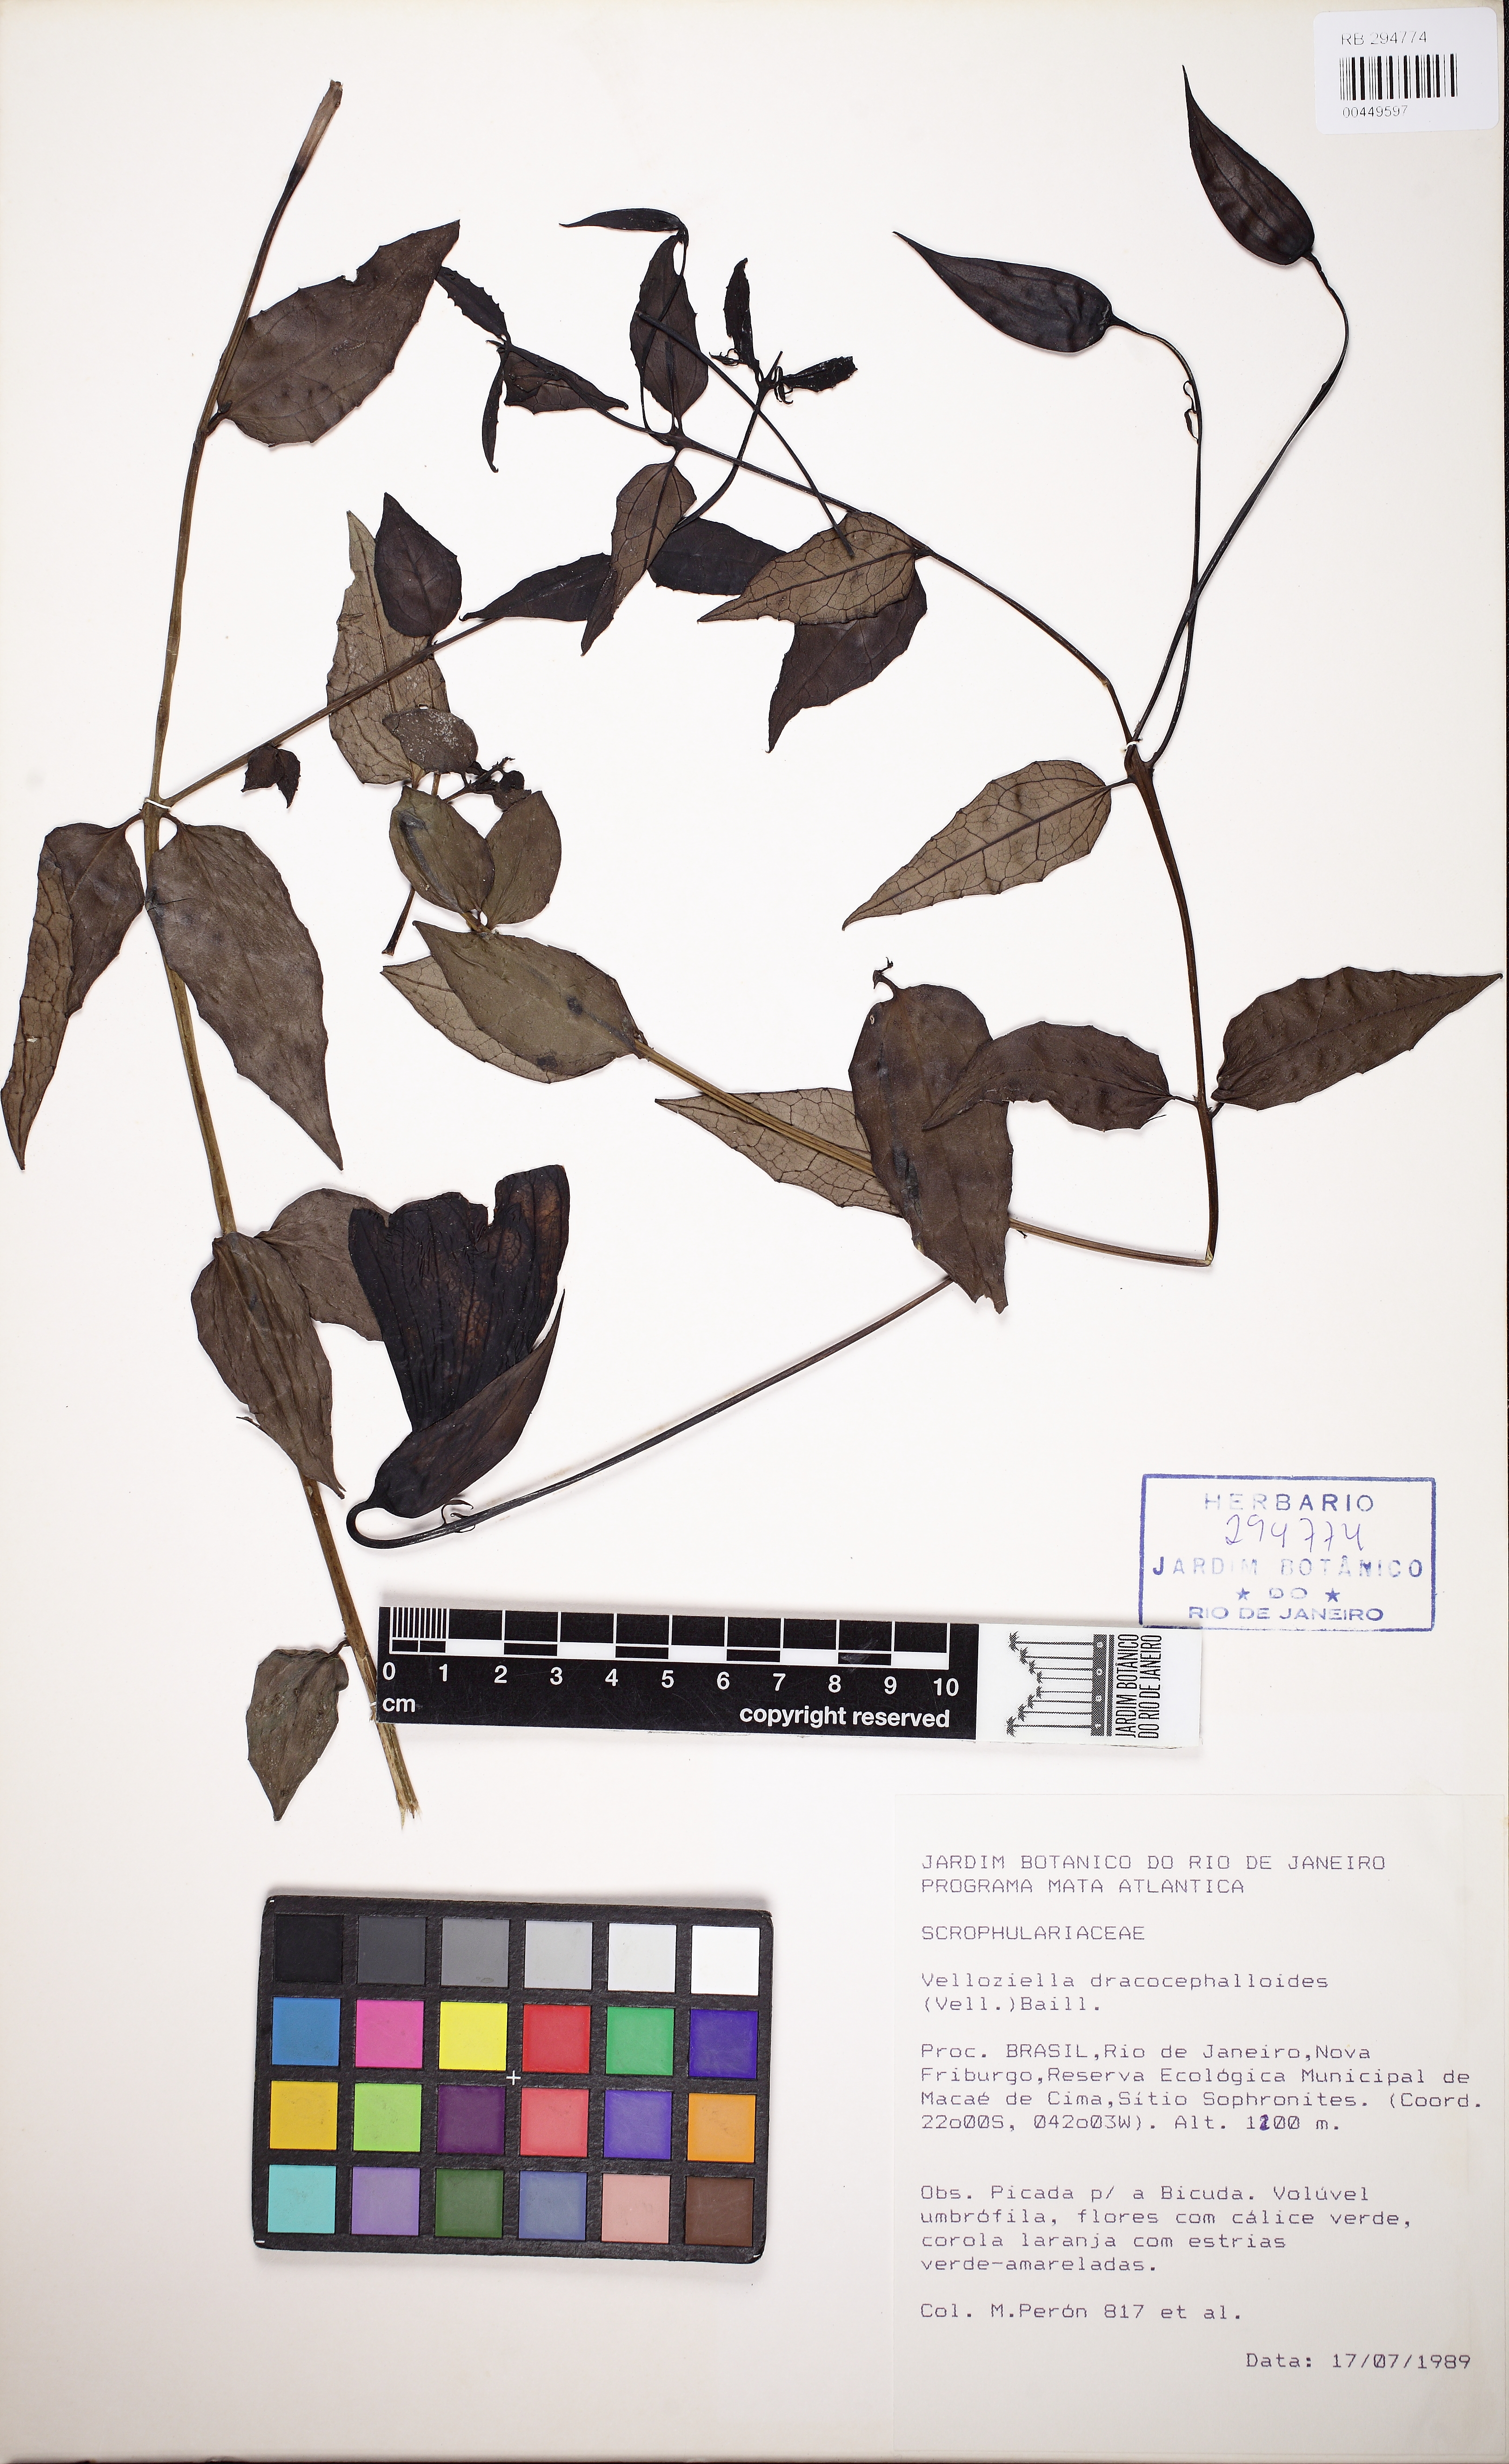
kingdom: Plantae
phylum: Tracheophyta
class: Magnoliopsida
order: Lamiales
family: Orobanchaceae
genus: Vellosiella
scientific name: Vellosiella dracocephaloides
